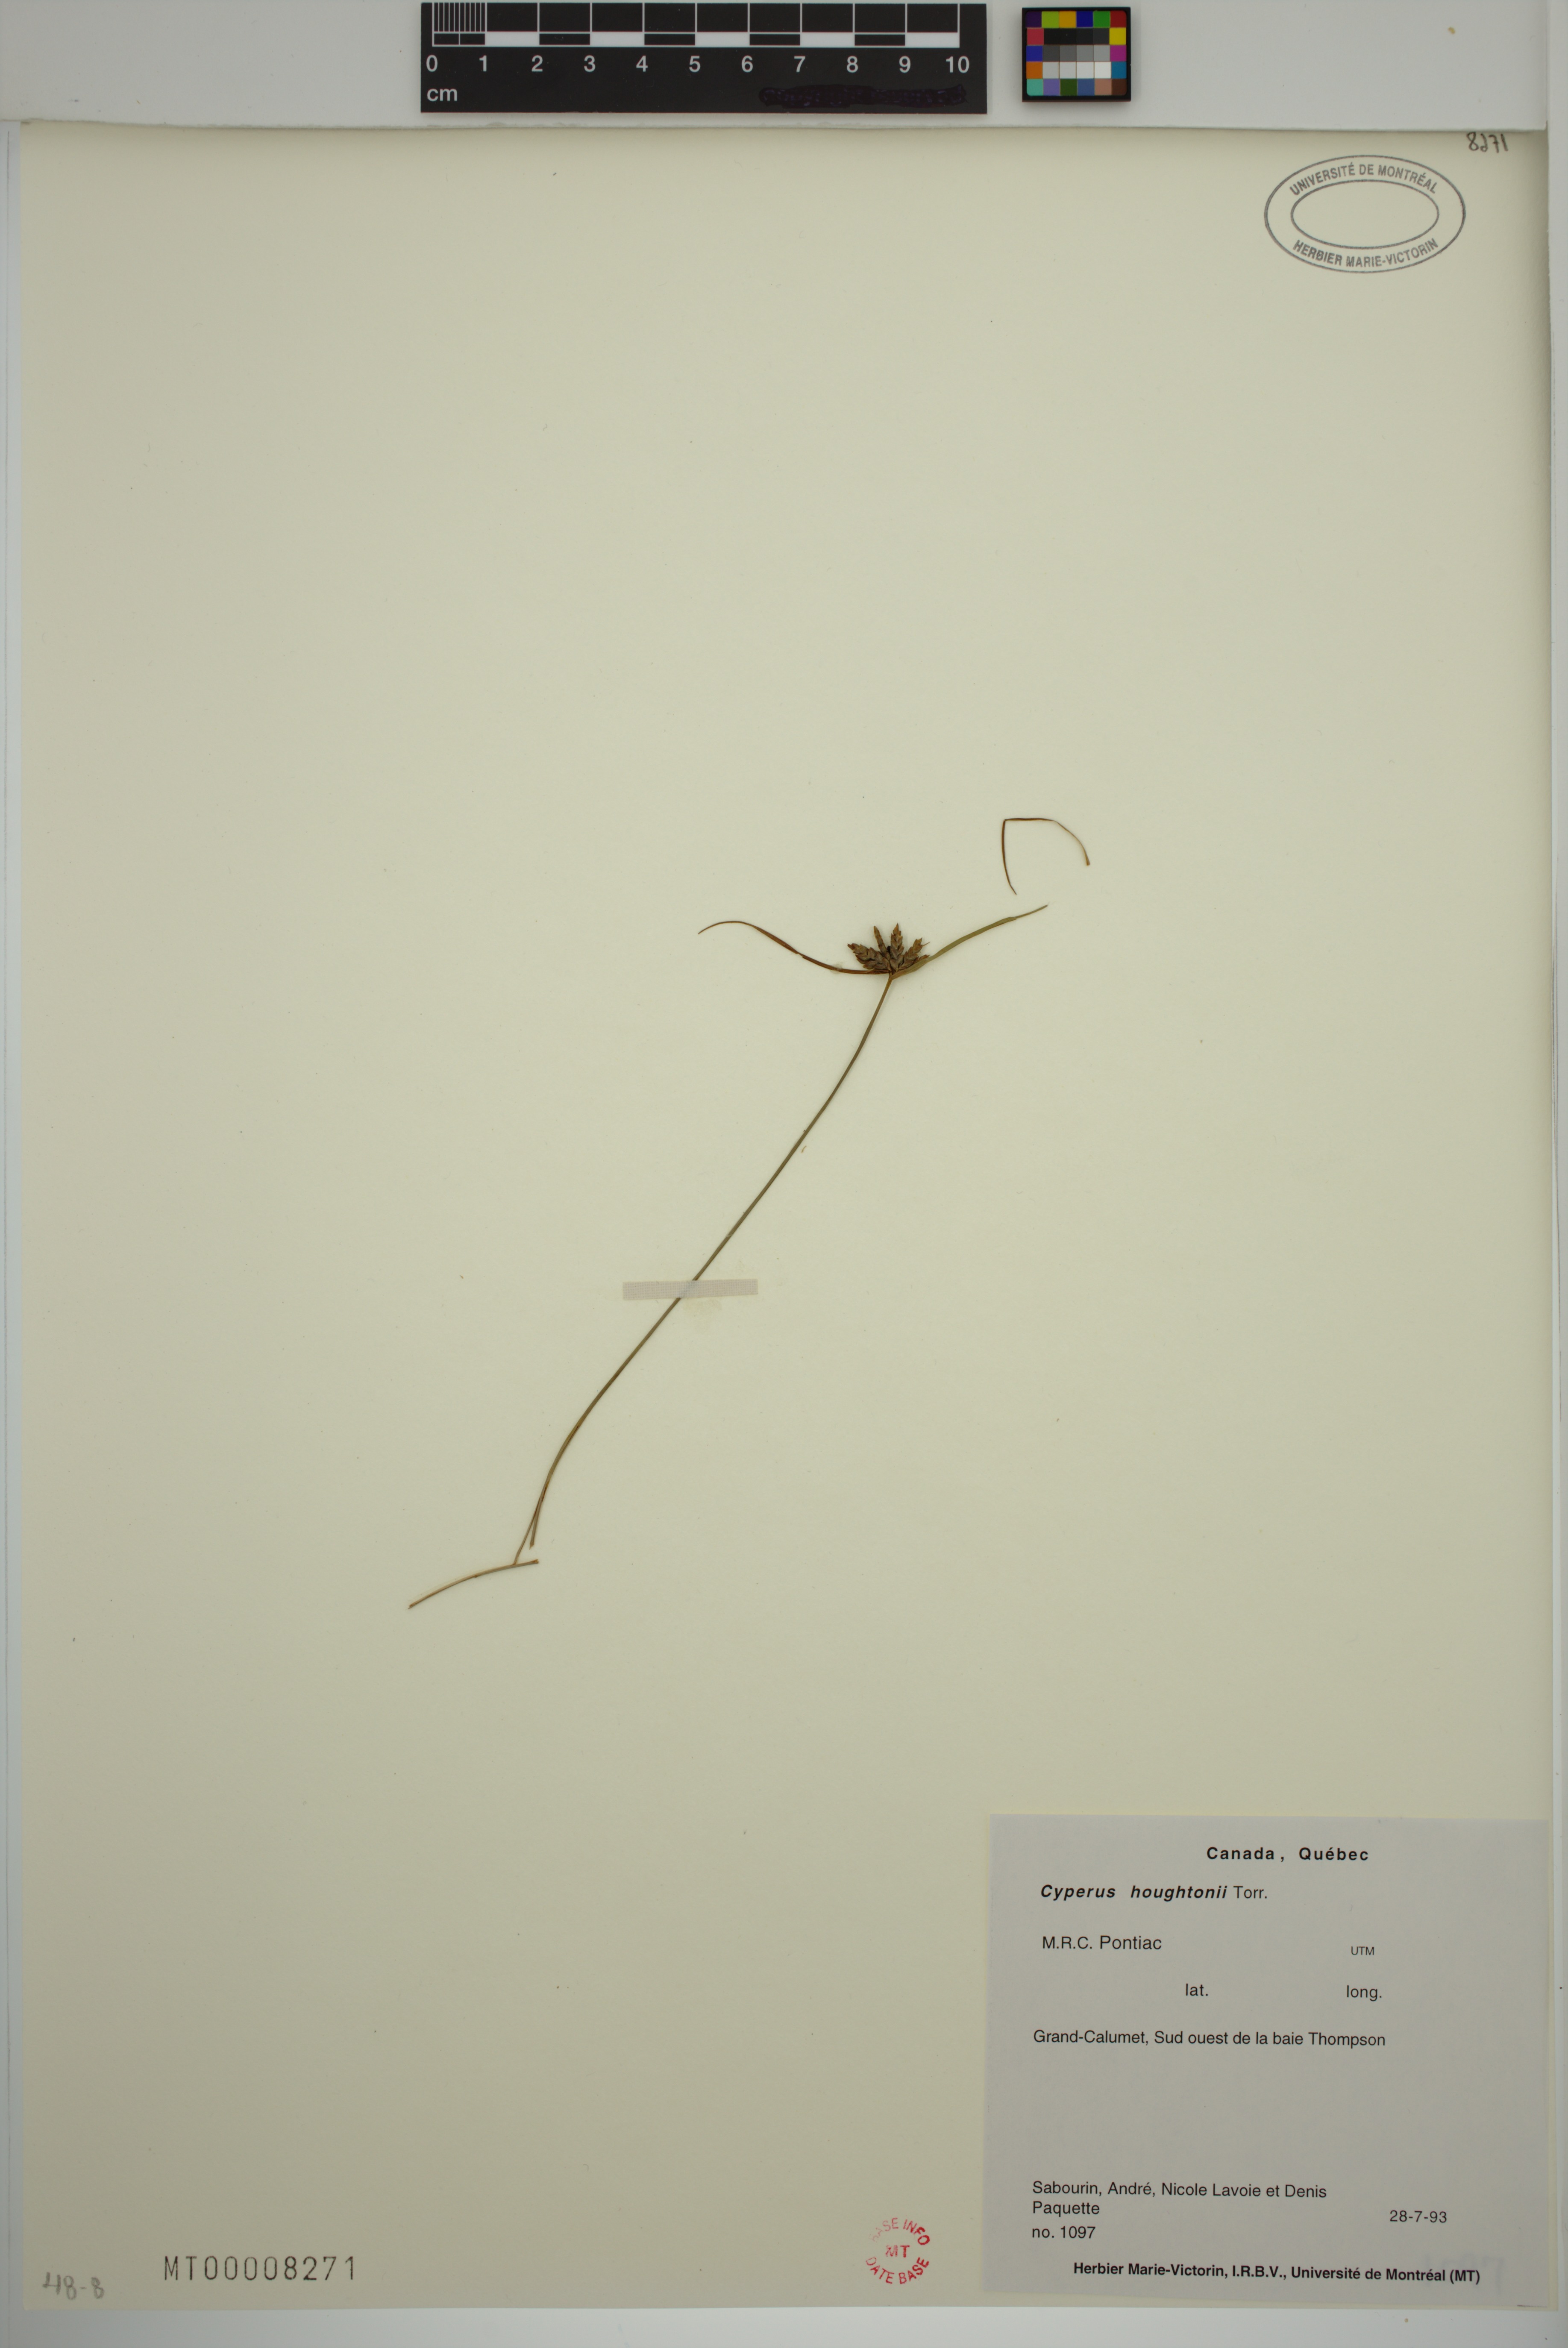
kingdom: Plantae
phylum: Tracheophyta
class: Liliopsida
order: Poales
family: Cyperaceae
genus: Cyperus
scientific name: Cyperus houghtonii
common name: Houghton's cyperus
